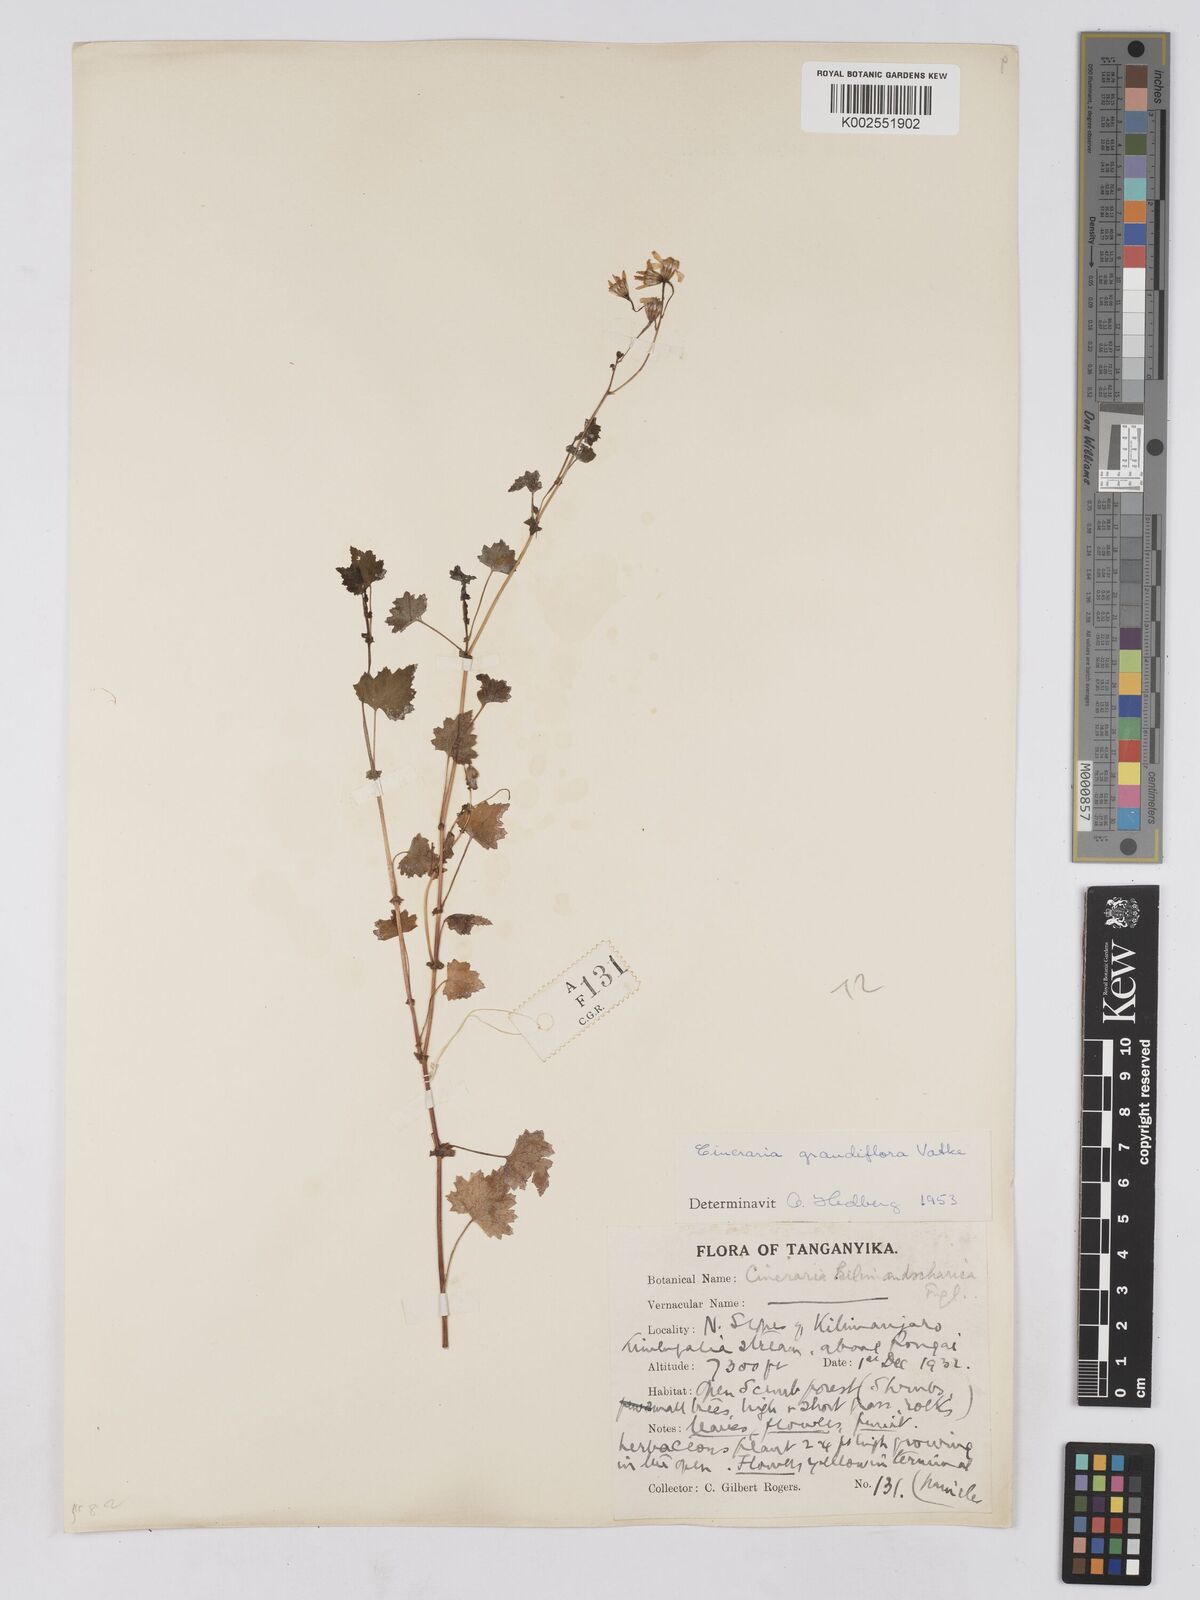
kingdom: Plantae
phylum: Tracheophyta
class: Magnoliopsida
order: Asterales
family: Asteraceae
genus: Cineraria
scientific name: Cineraria deltoidea
